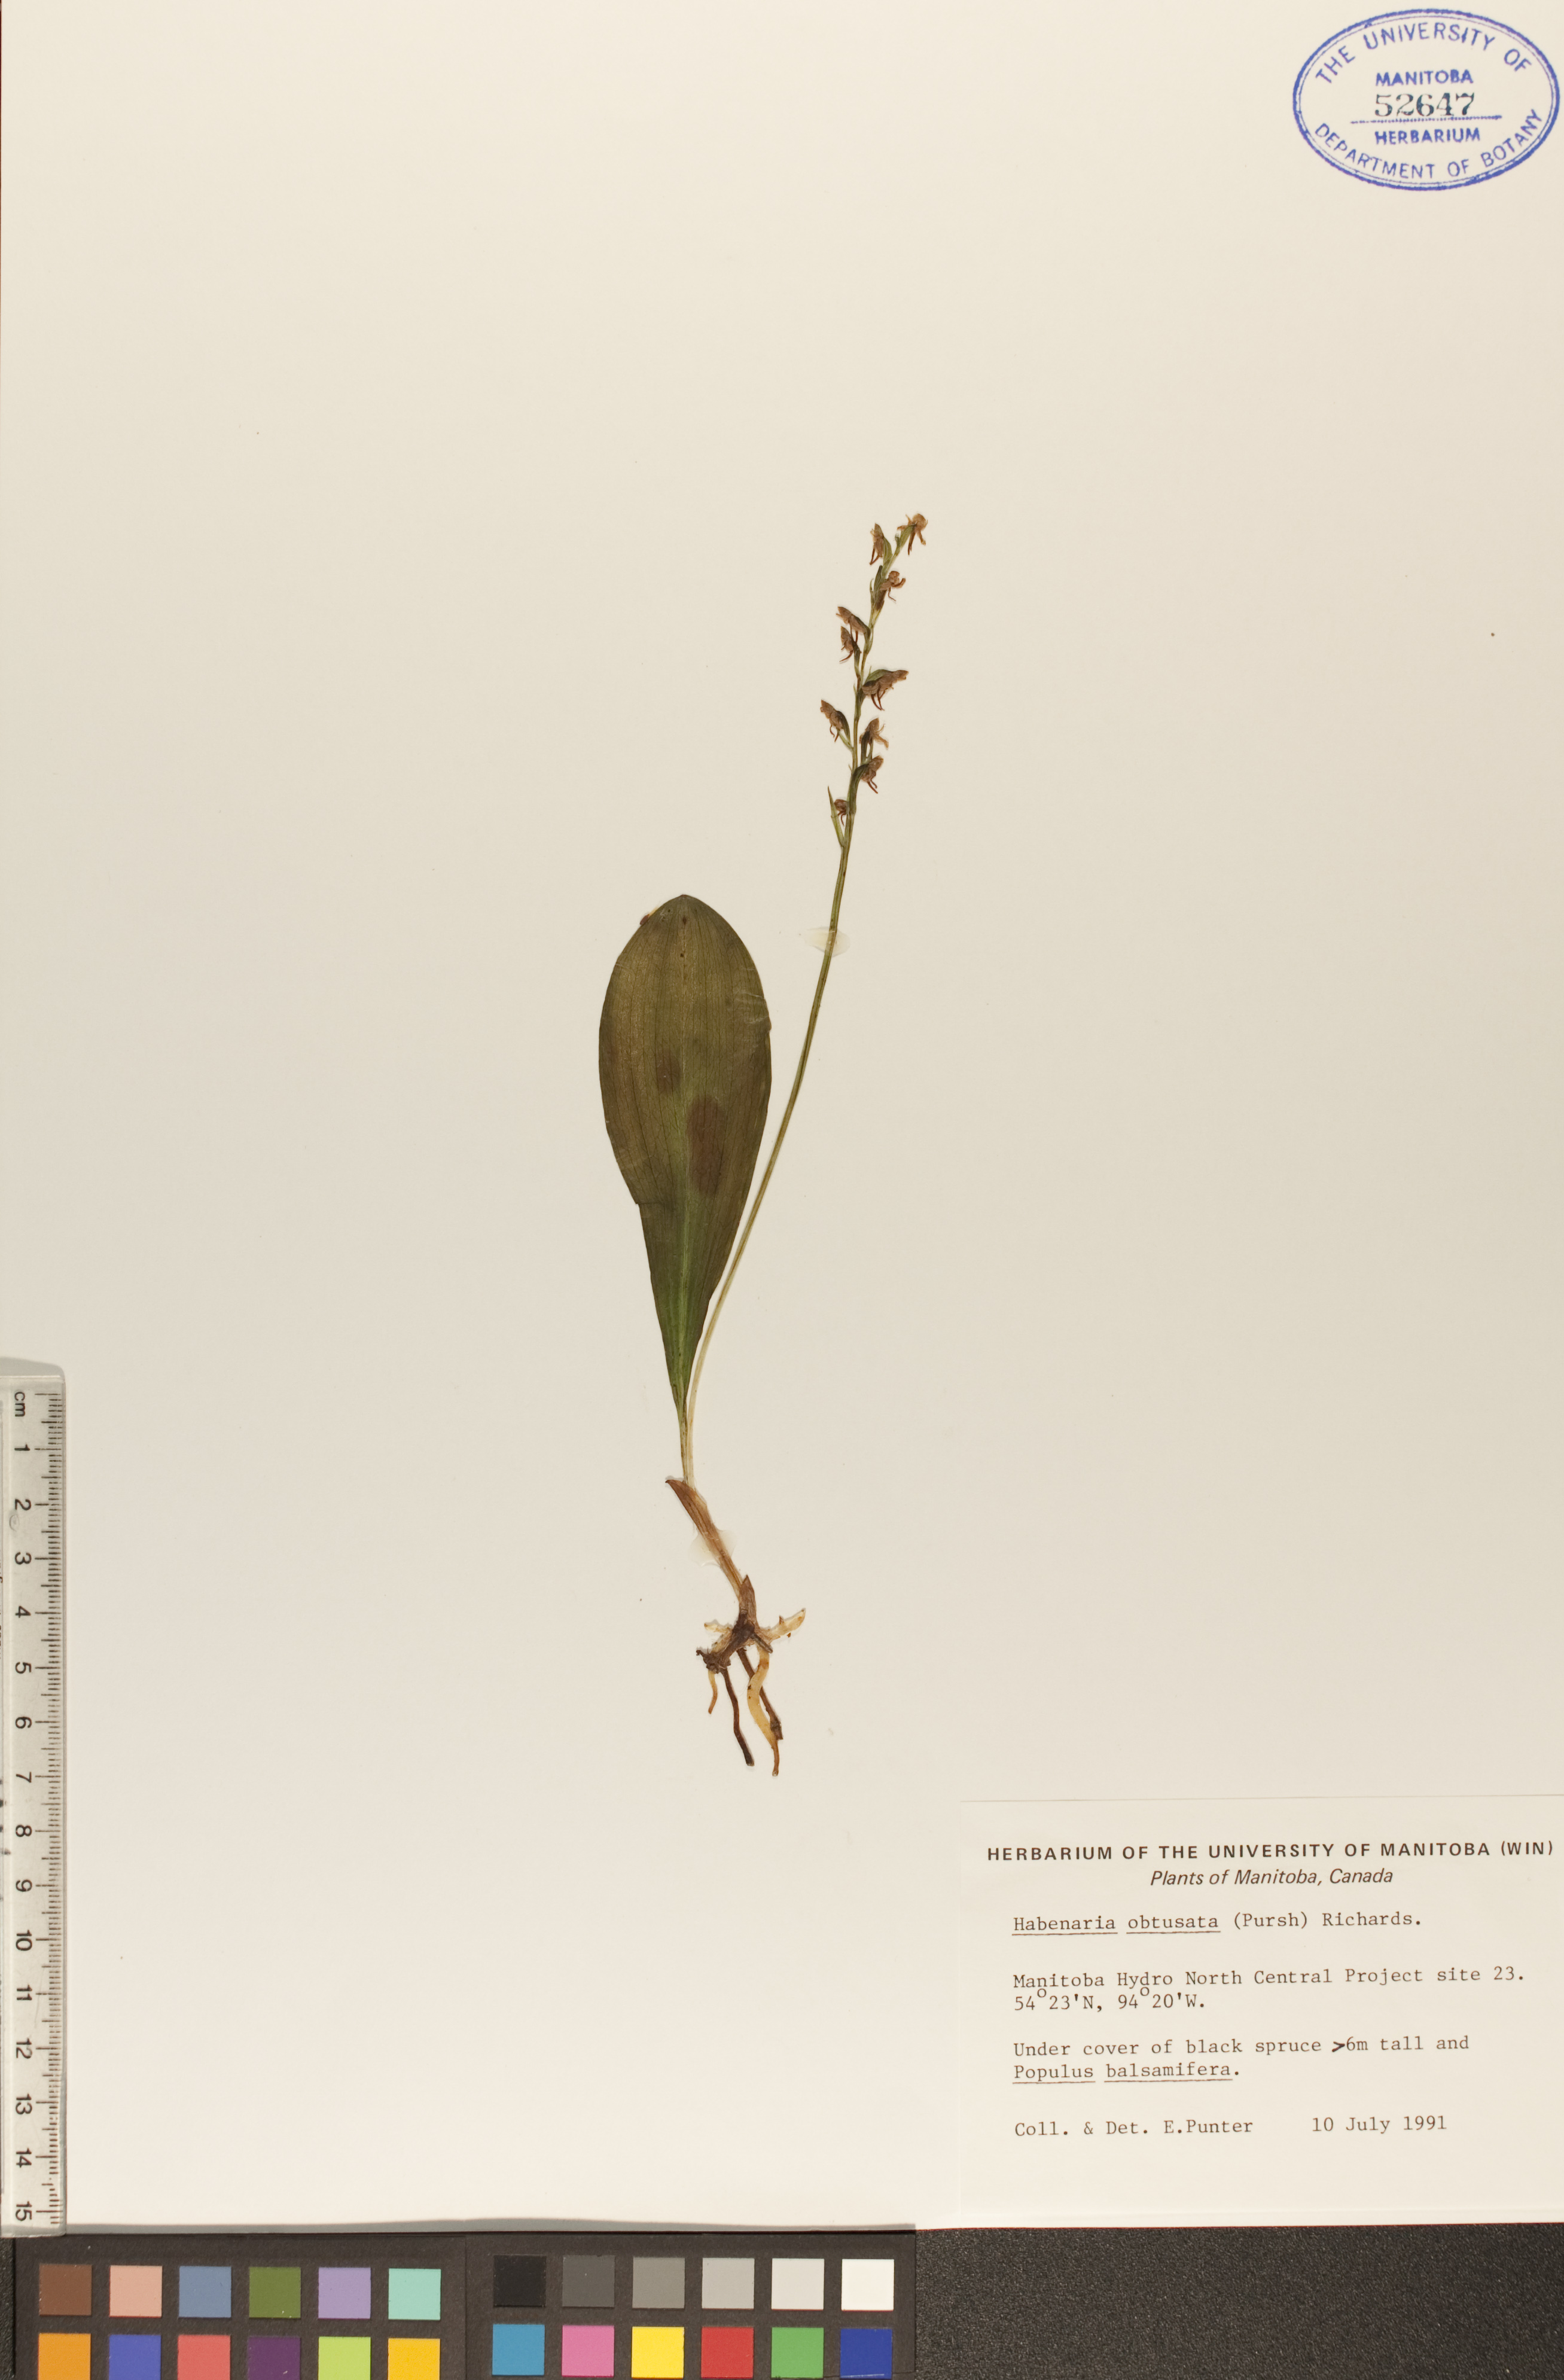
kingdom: Plantae
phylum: Tracheophyta
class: Liliopsida
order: Asparagales
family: Orchidaceae
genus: Platanthera
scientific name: Platanthera obtusata
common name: Blunt bog orchid
